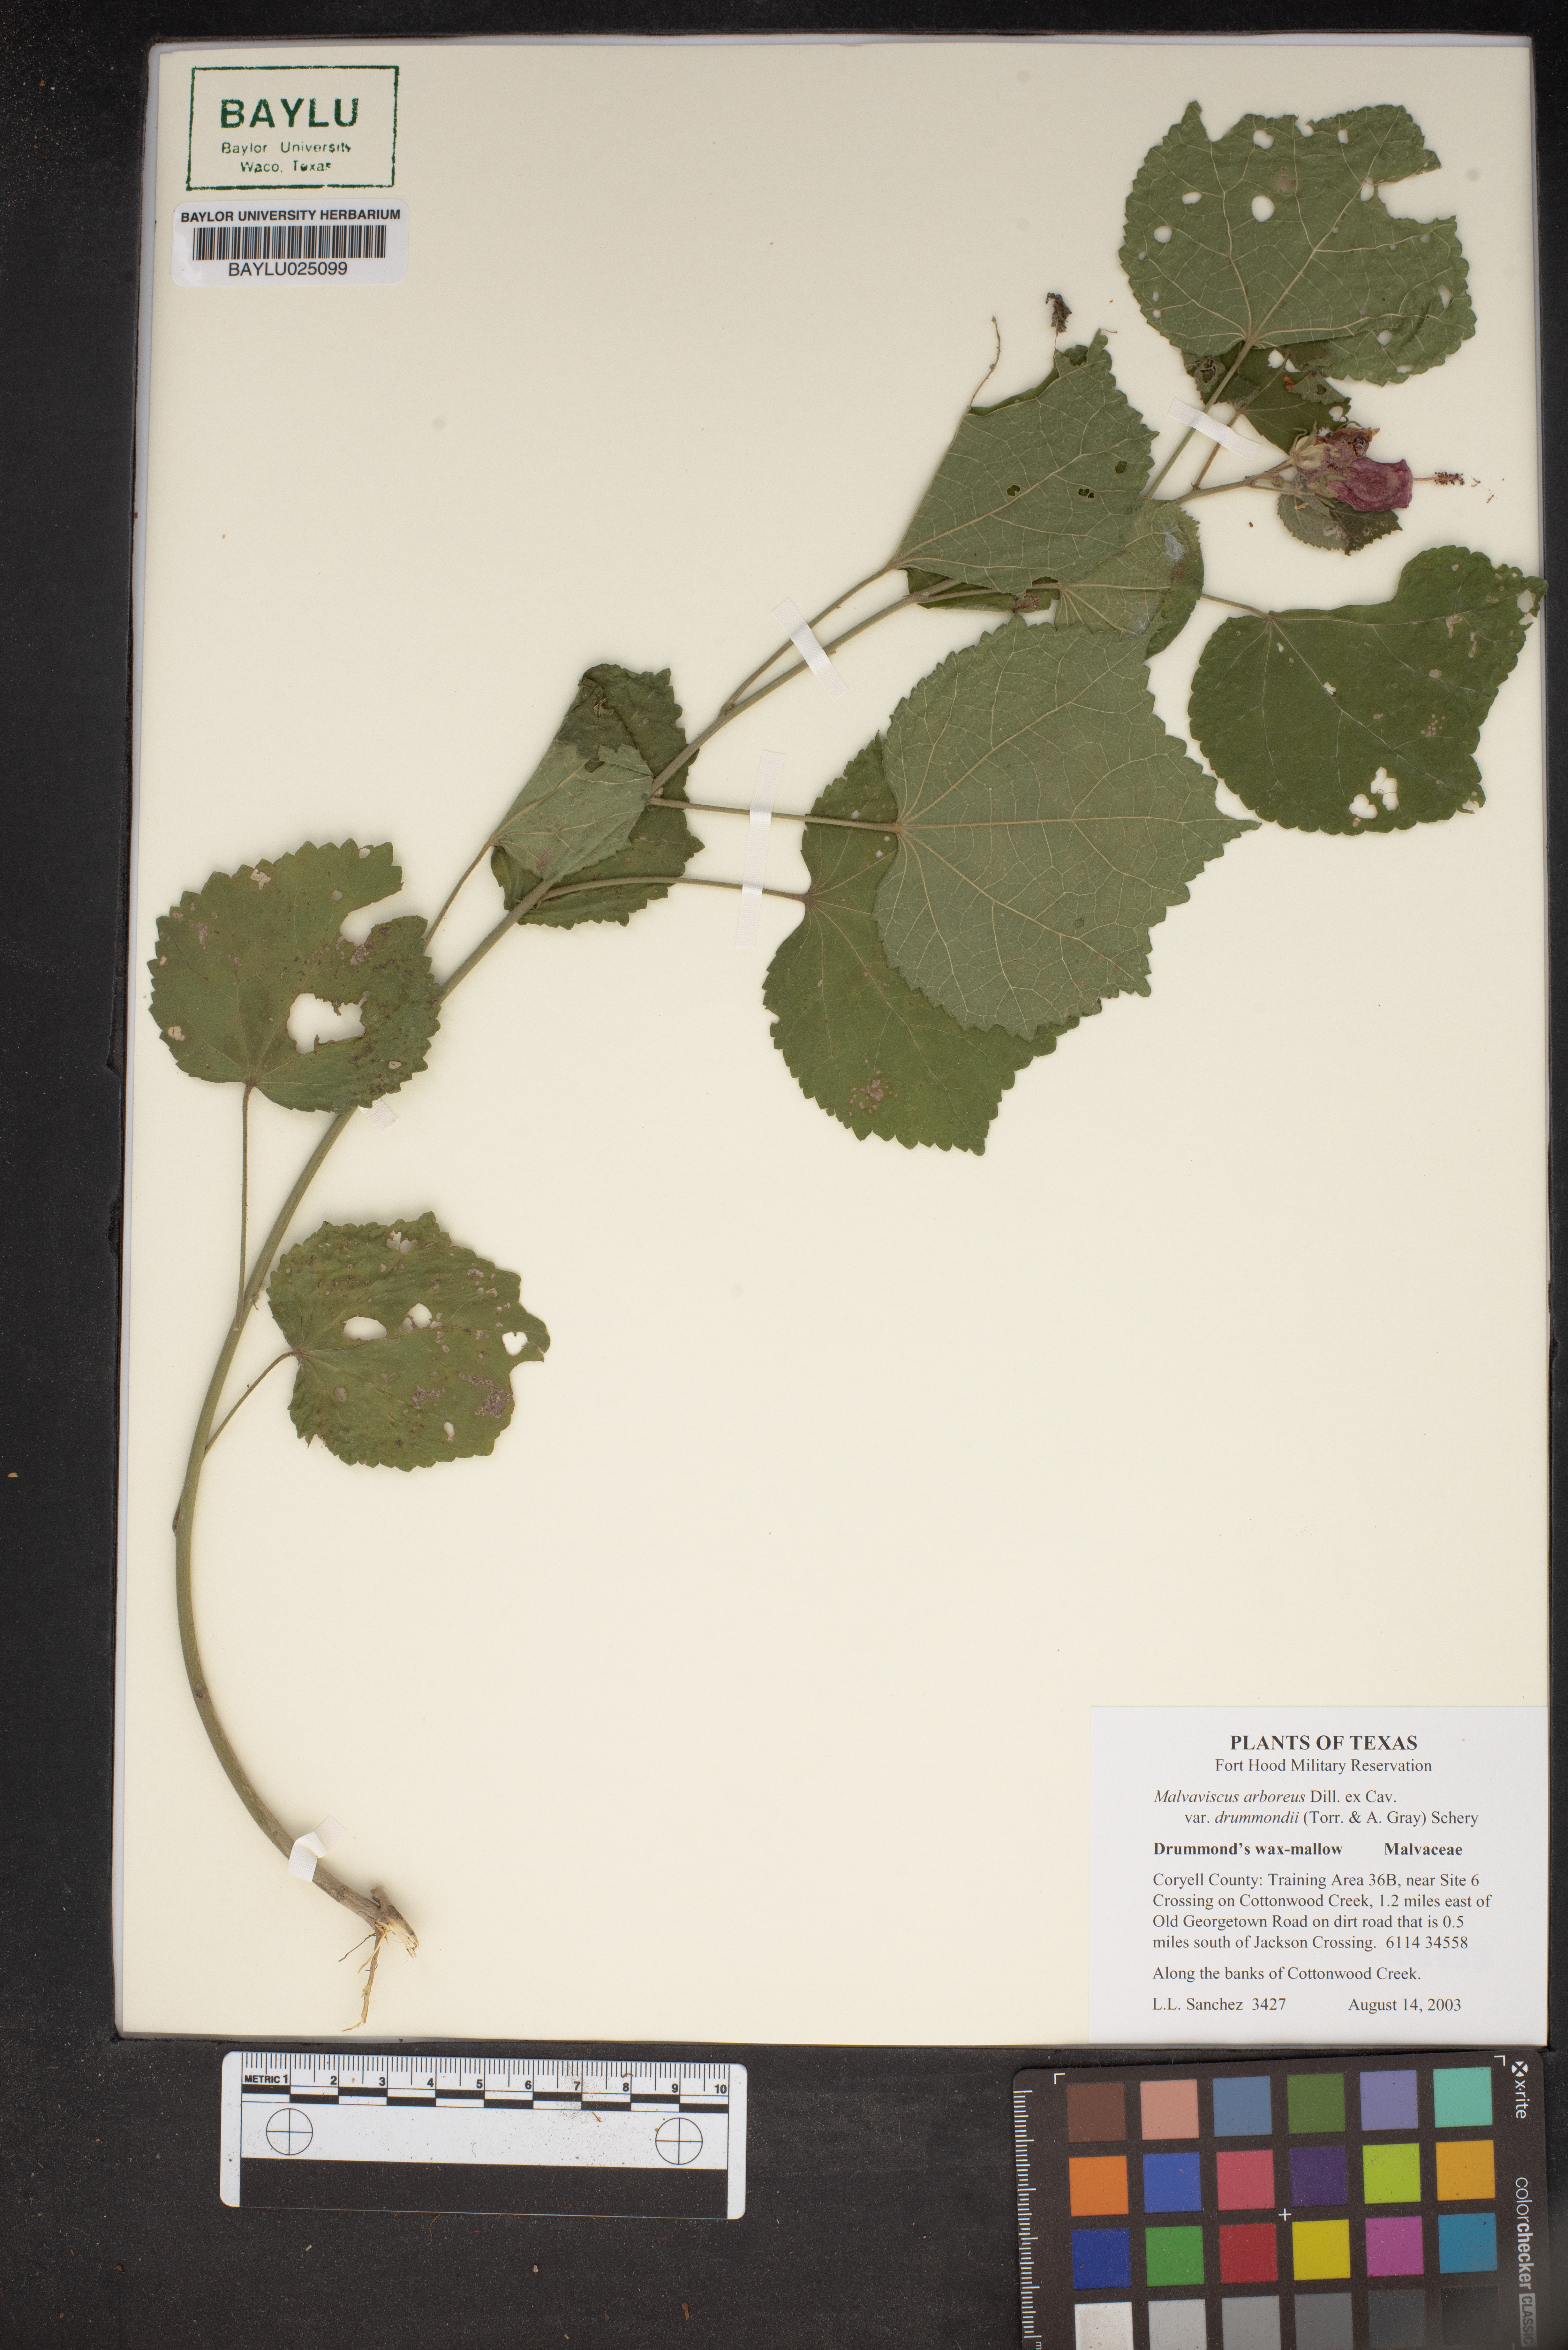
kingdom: Plantae
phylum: Tracheophyta
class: Magnoliopsida
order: Malvales
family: Malvaceae
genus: Malvaviscus
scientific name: Malvaviscus arboreus
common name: Wax mallow
